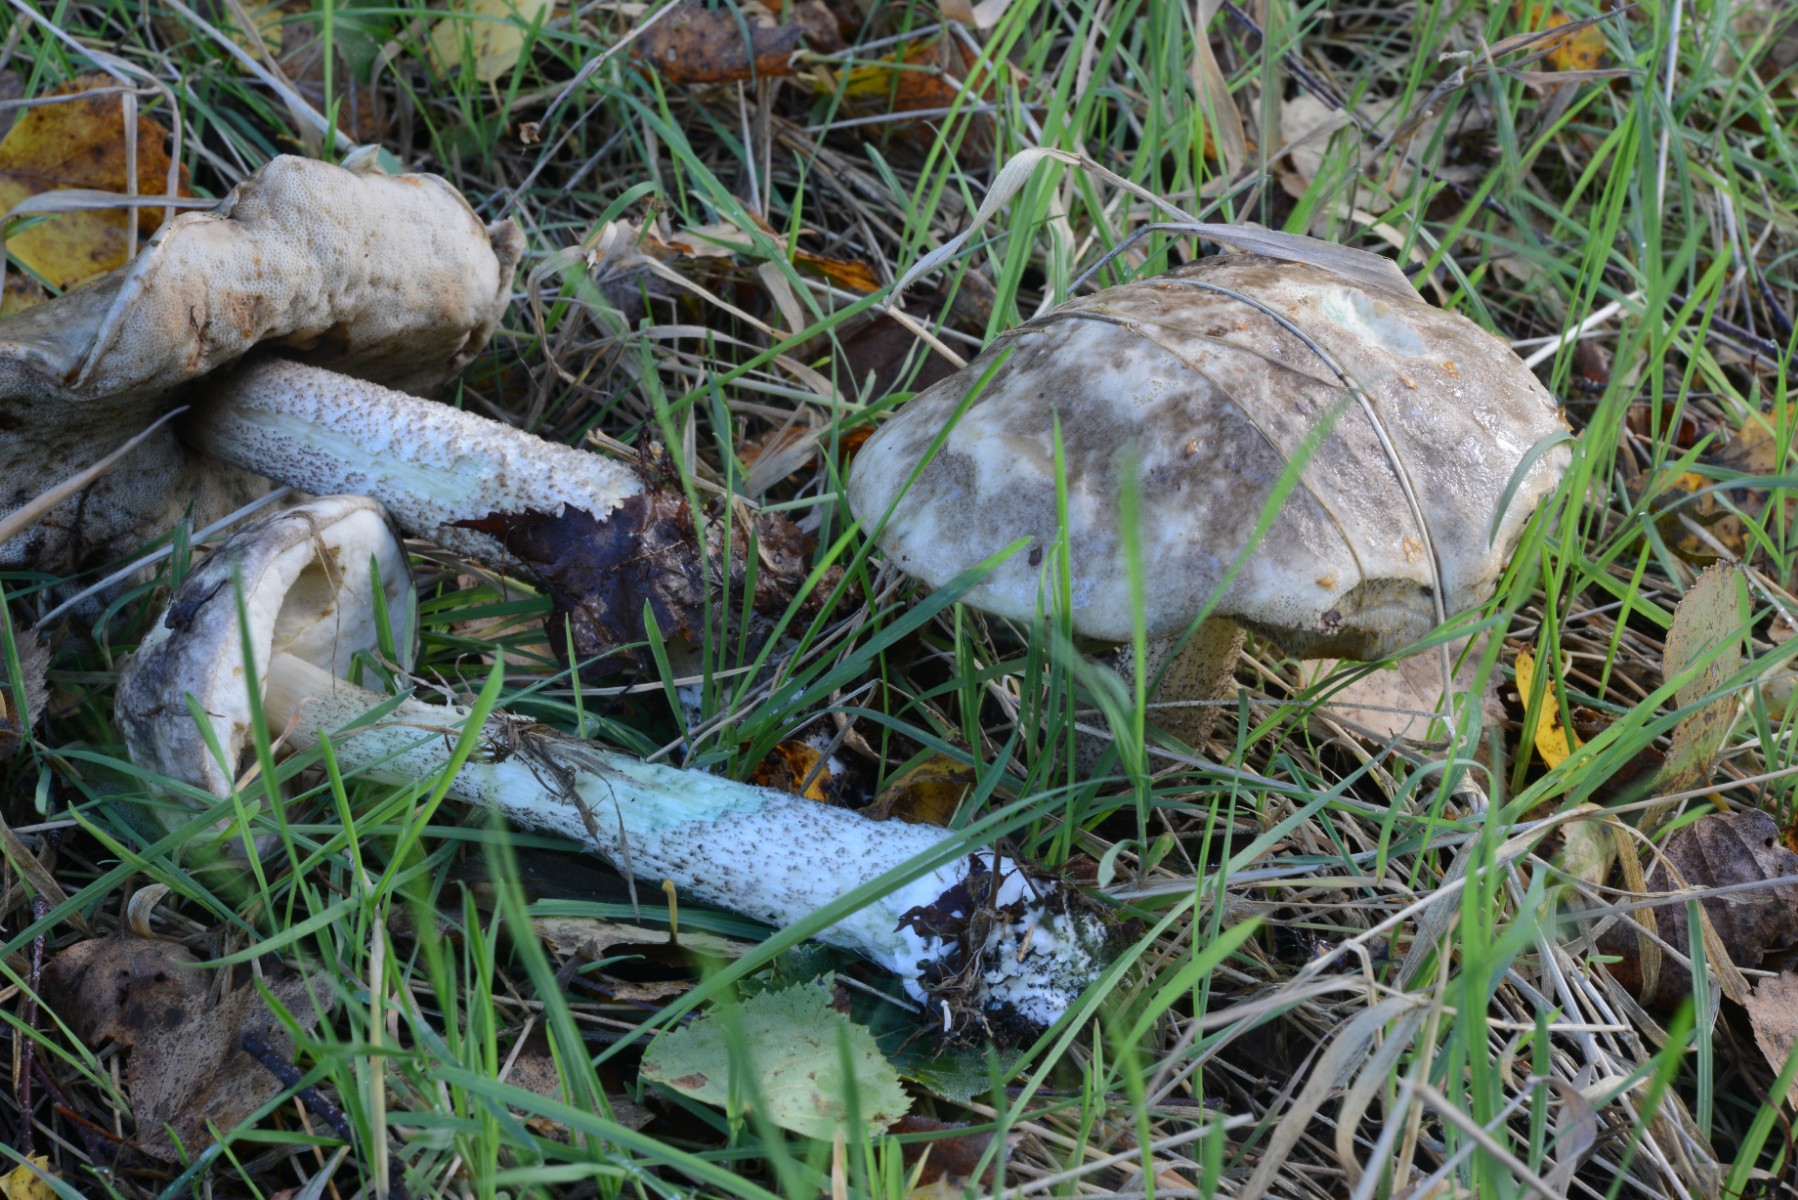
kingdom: Fungi
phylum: Basidiomycota
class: Agaricomycetes
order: Boletales
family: Boletaceae
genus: Leccinum
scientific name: Leccinum variicolor
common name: flammet skælrørhat
